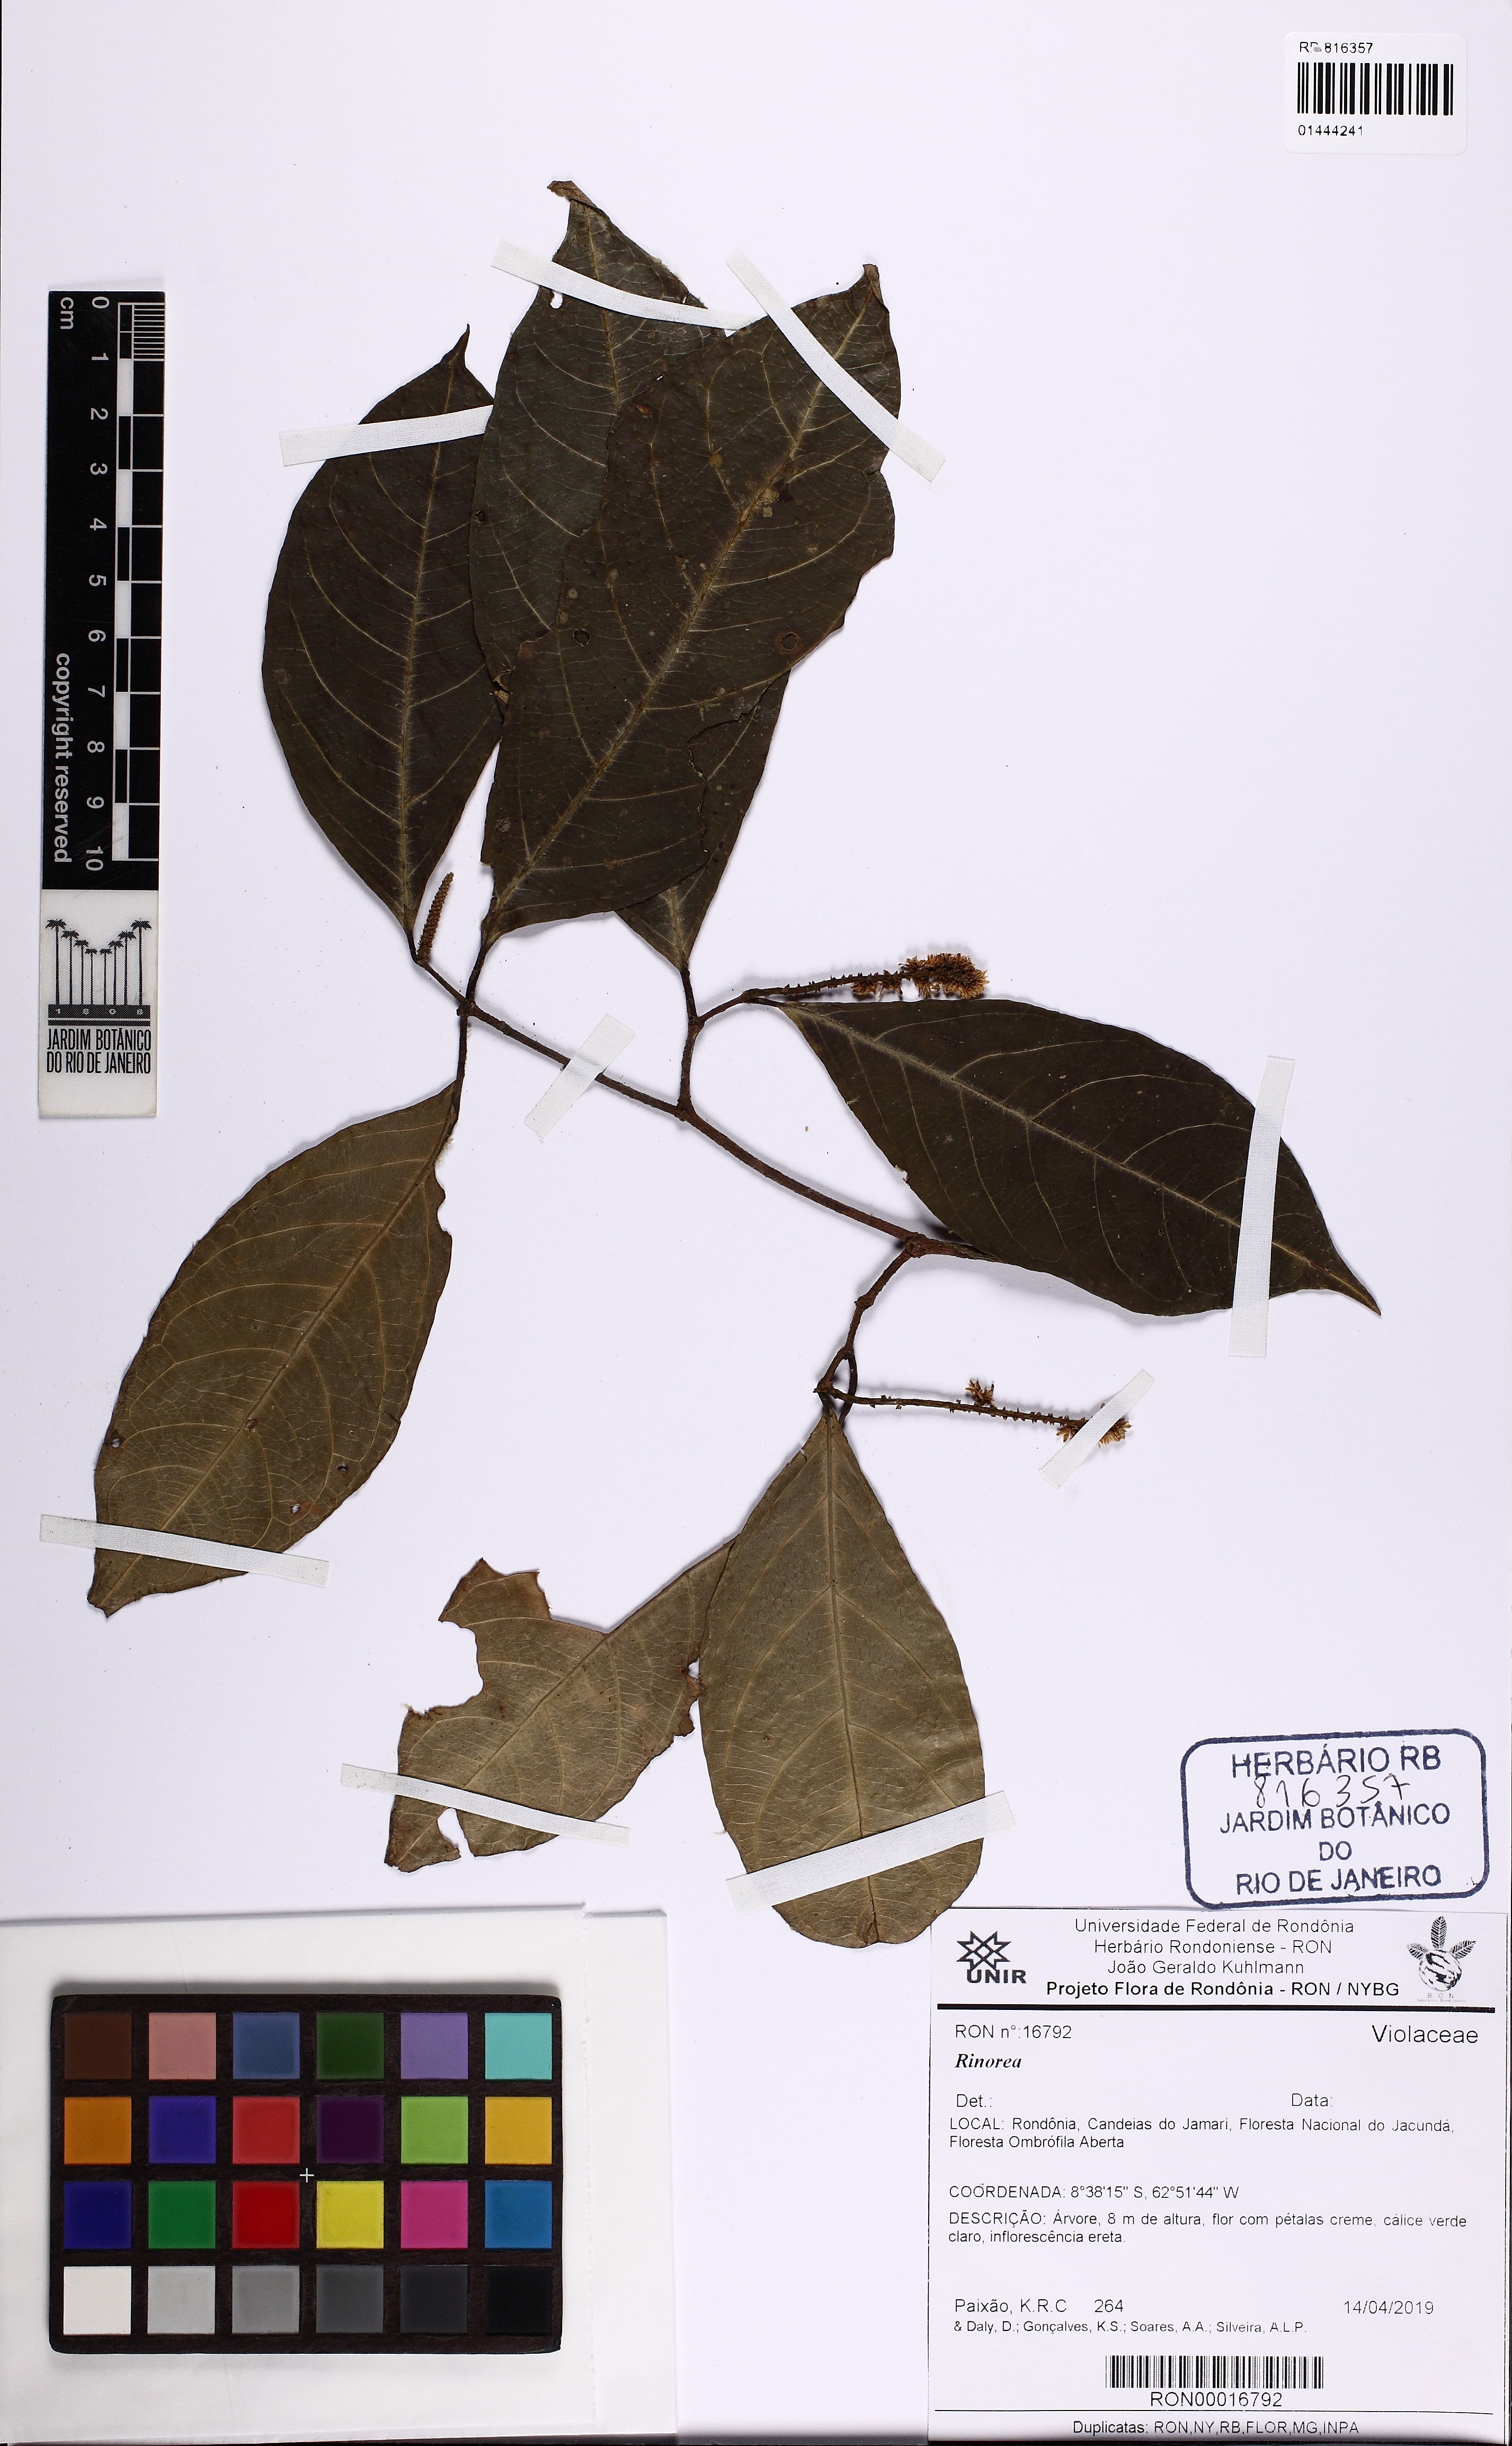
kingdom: Plantae
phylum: Tracheophyta
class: Magnoliopsida
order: Malpighiales
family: Violaceae
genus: Rinorea
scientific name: Rinorea macrocarpa
